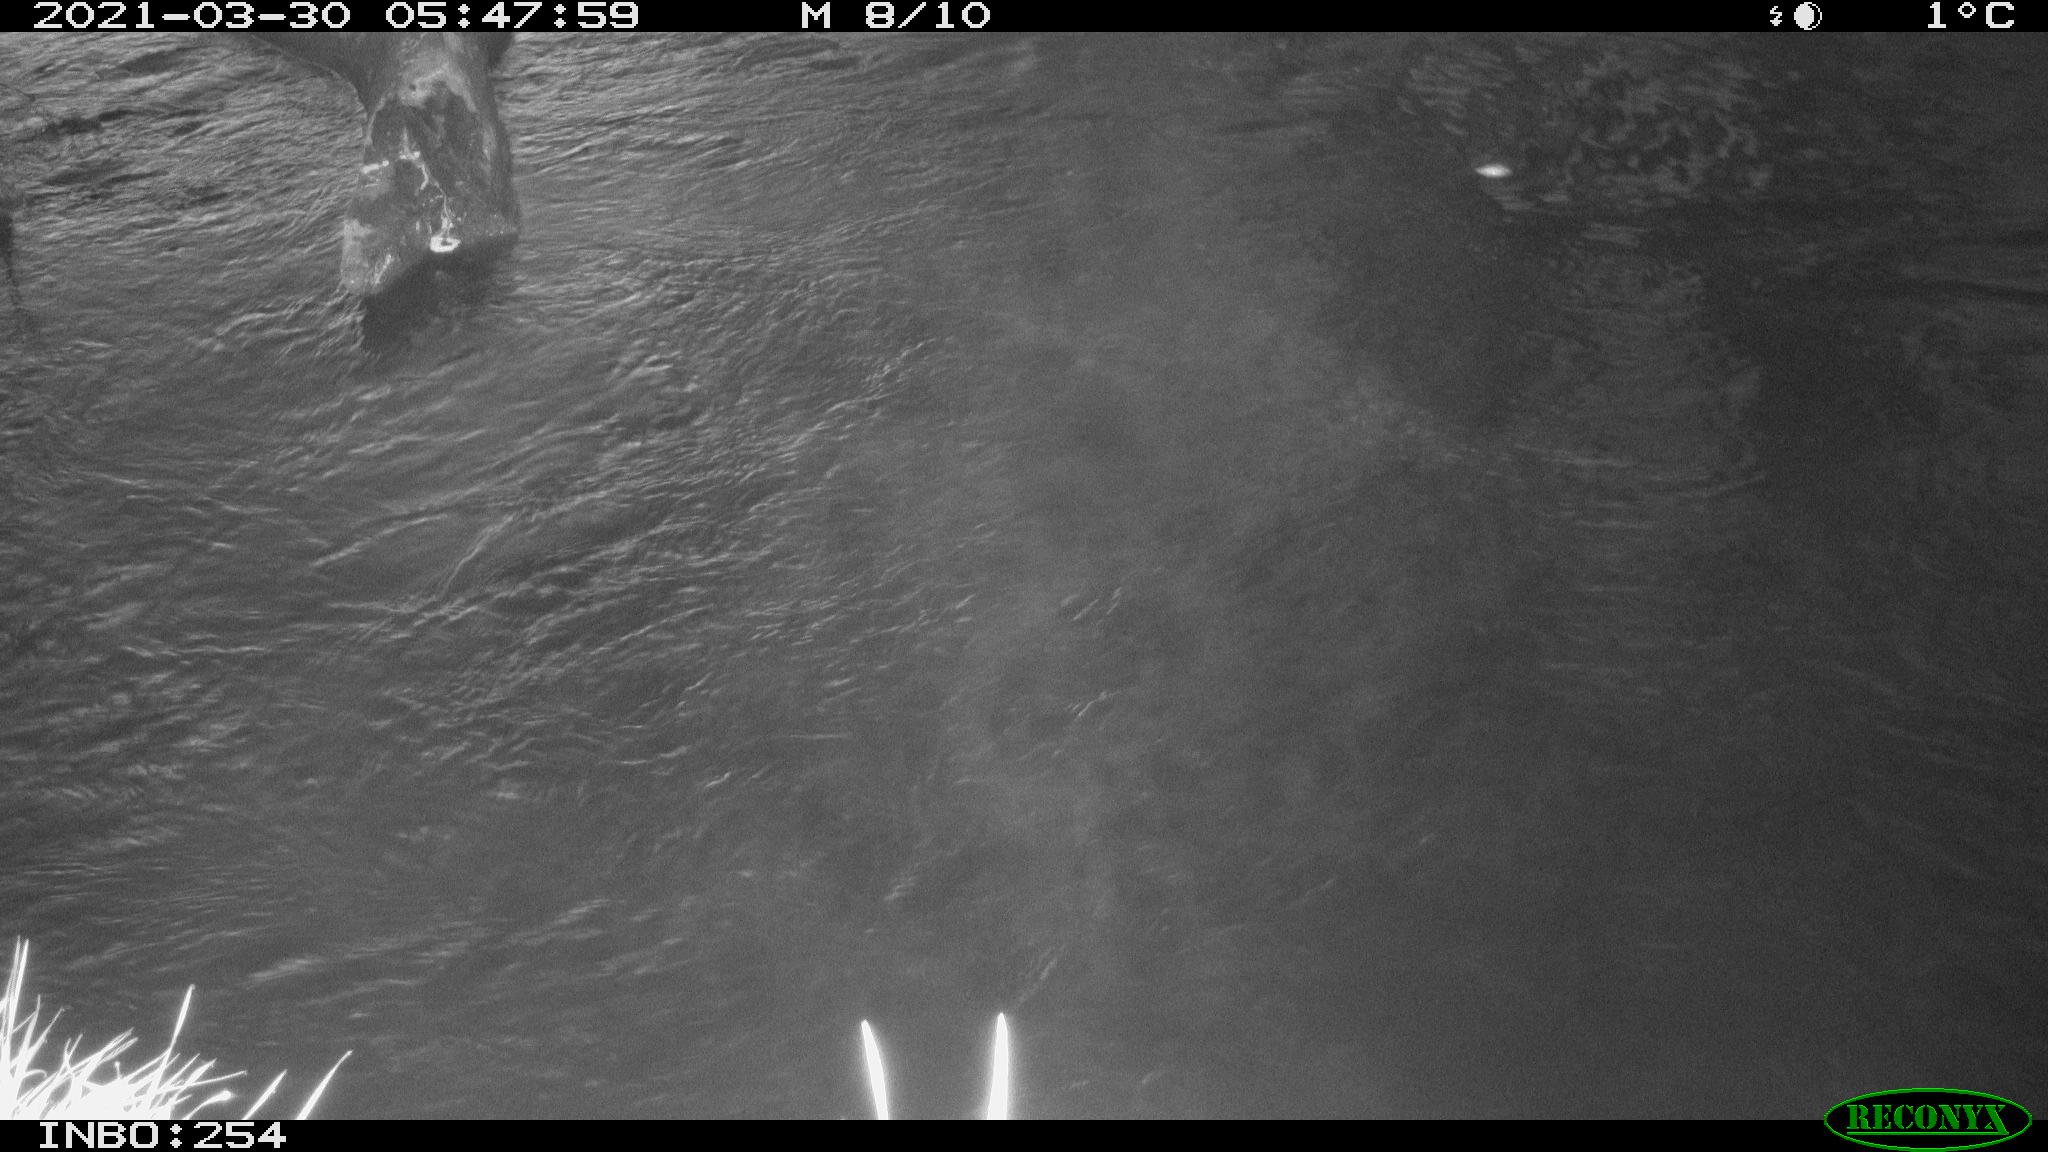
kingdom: Animalia
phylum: Chordata
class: Aves
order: Gruiformes
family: Rallidae
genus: Gallinula
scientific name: Gallinula chloropus
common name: Common moorhen
